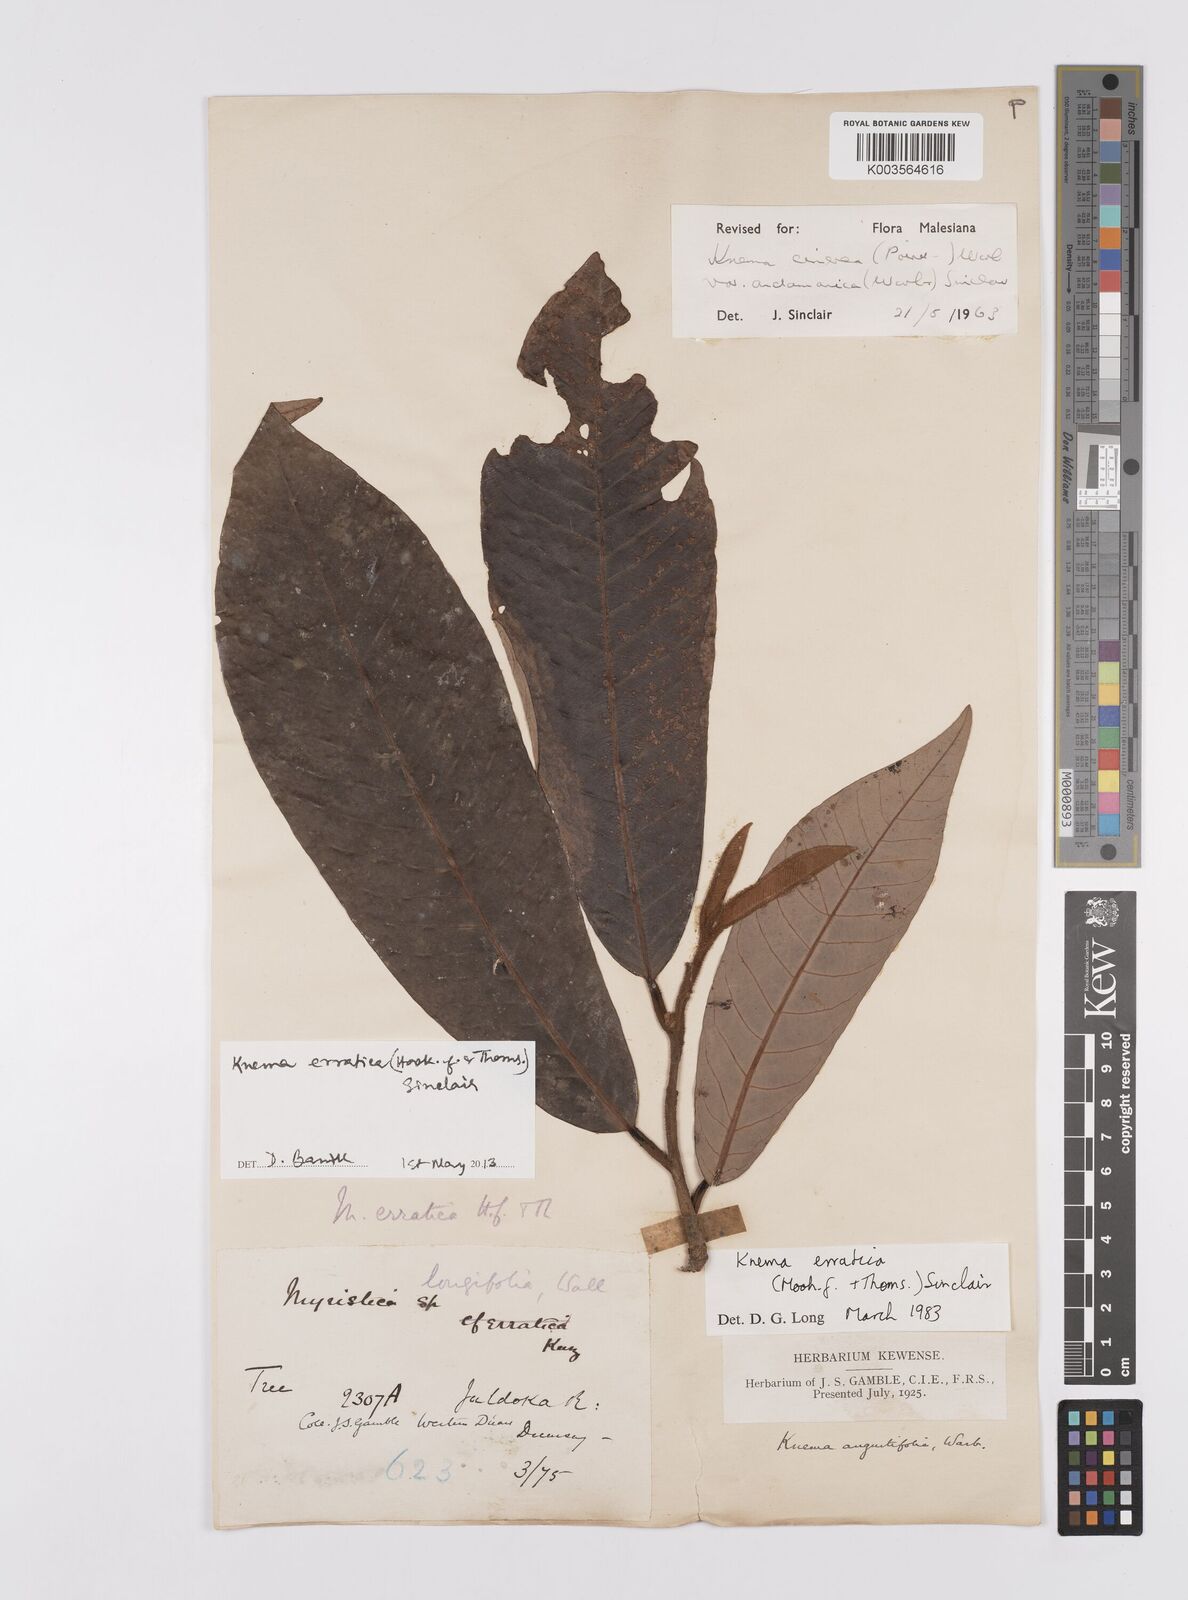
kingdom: Plantae
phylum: Tracheophyta
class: Magnoliopsida
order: Magnoliales
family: Myristicaceae
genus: Knema
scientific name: Knema
